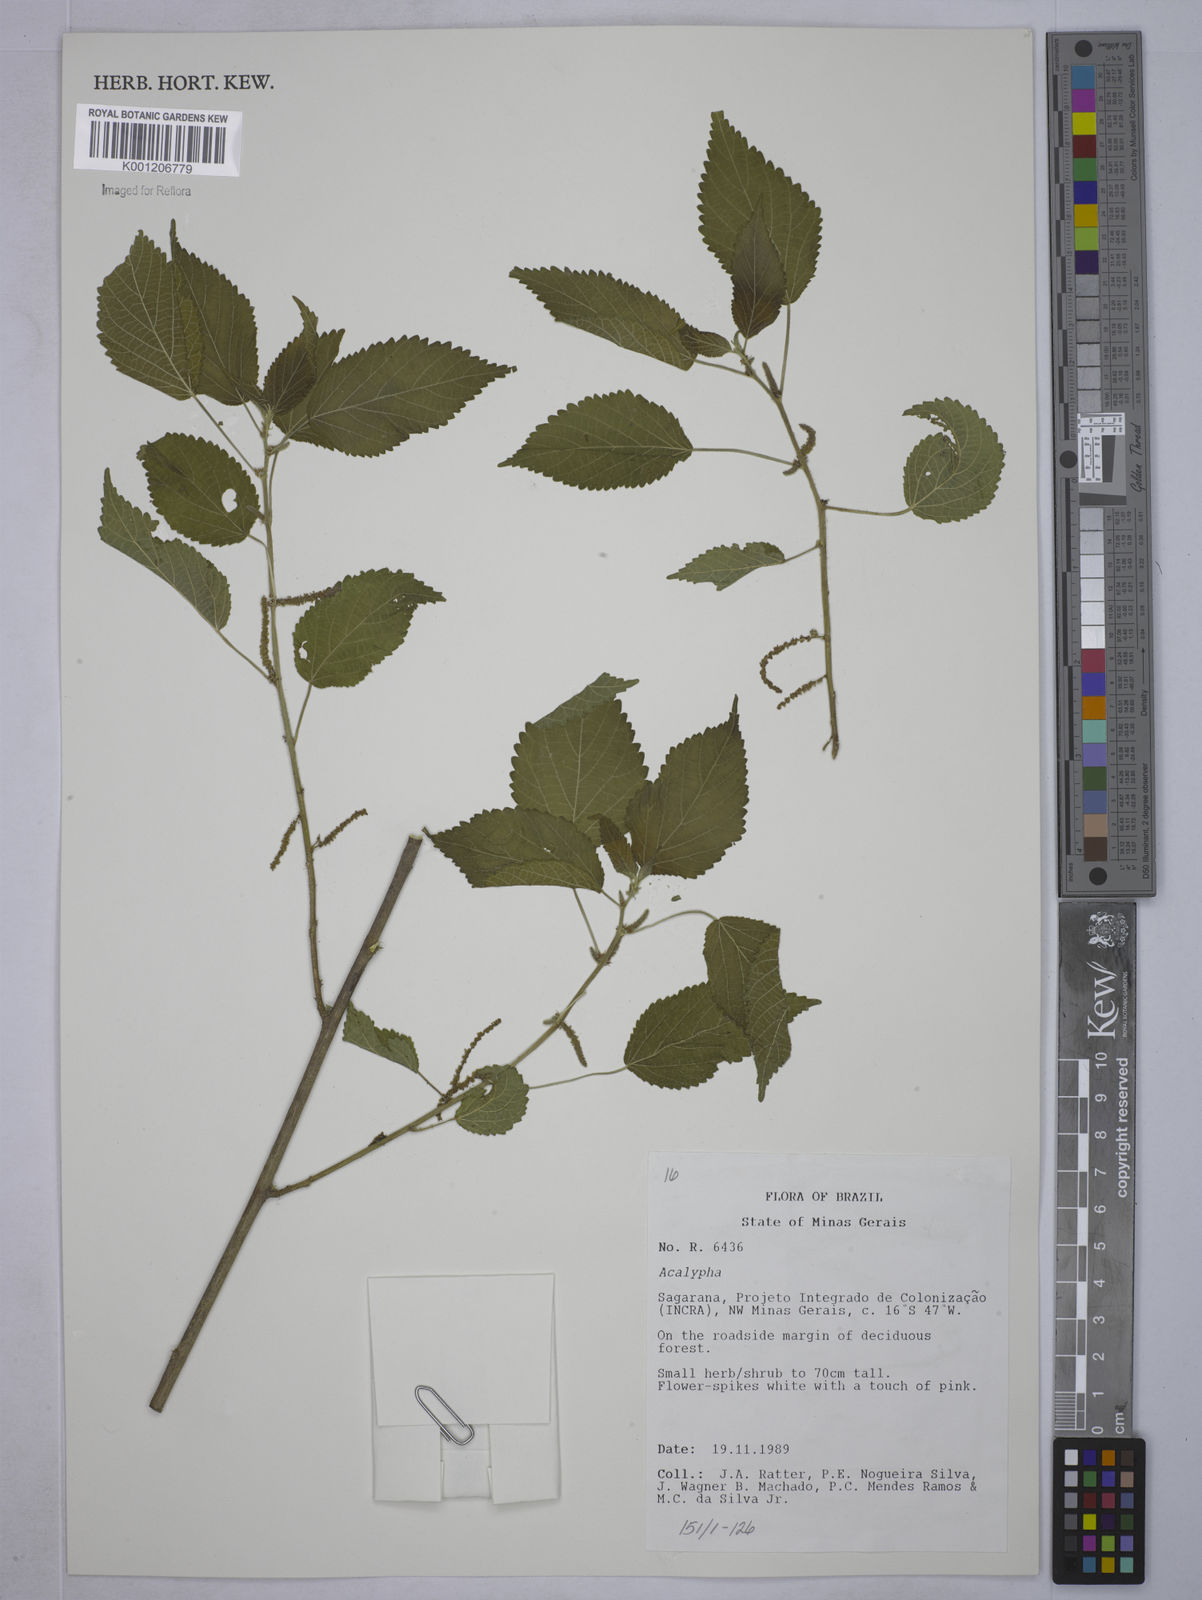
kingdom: Plantae
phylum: Tracheophyta
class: Magnoliopsida
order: Malpighiales
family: Euphorbiaceae
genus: Acalypha
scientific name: Acalypha
